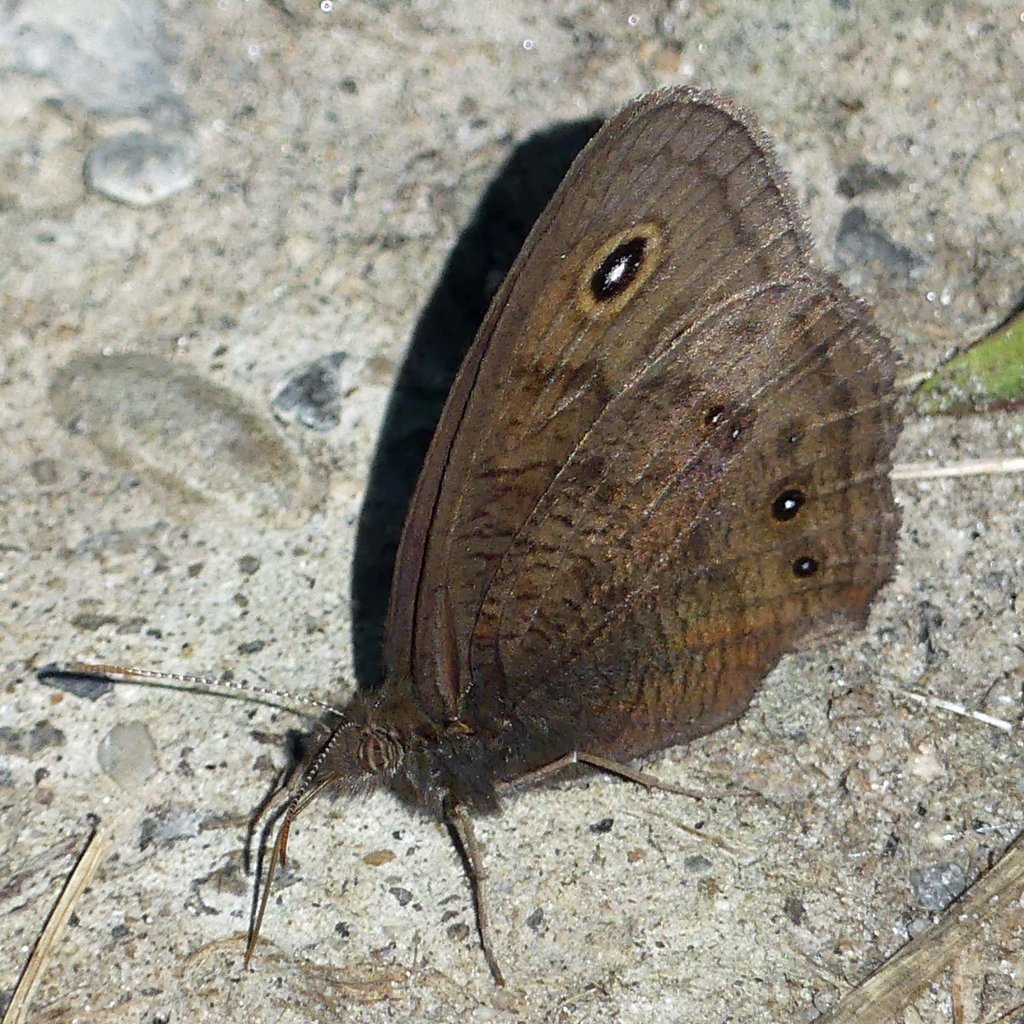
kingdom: Animalia
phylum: Arthropoda
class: Insecta
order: Lepidoptera
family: Nymphalidae
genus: Cercyonis
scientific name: Cercyonis pegala
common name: Common Wood-Nymph
